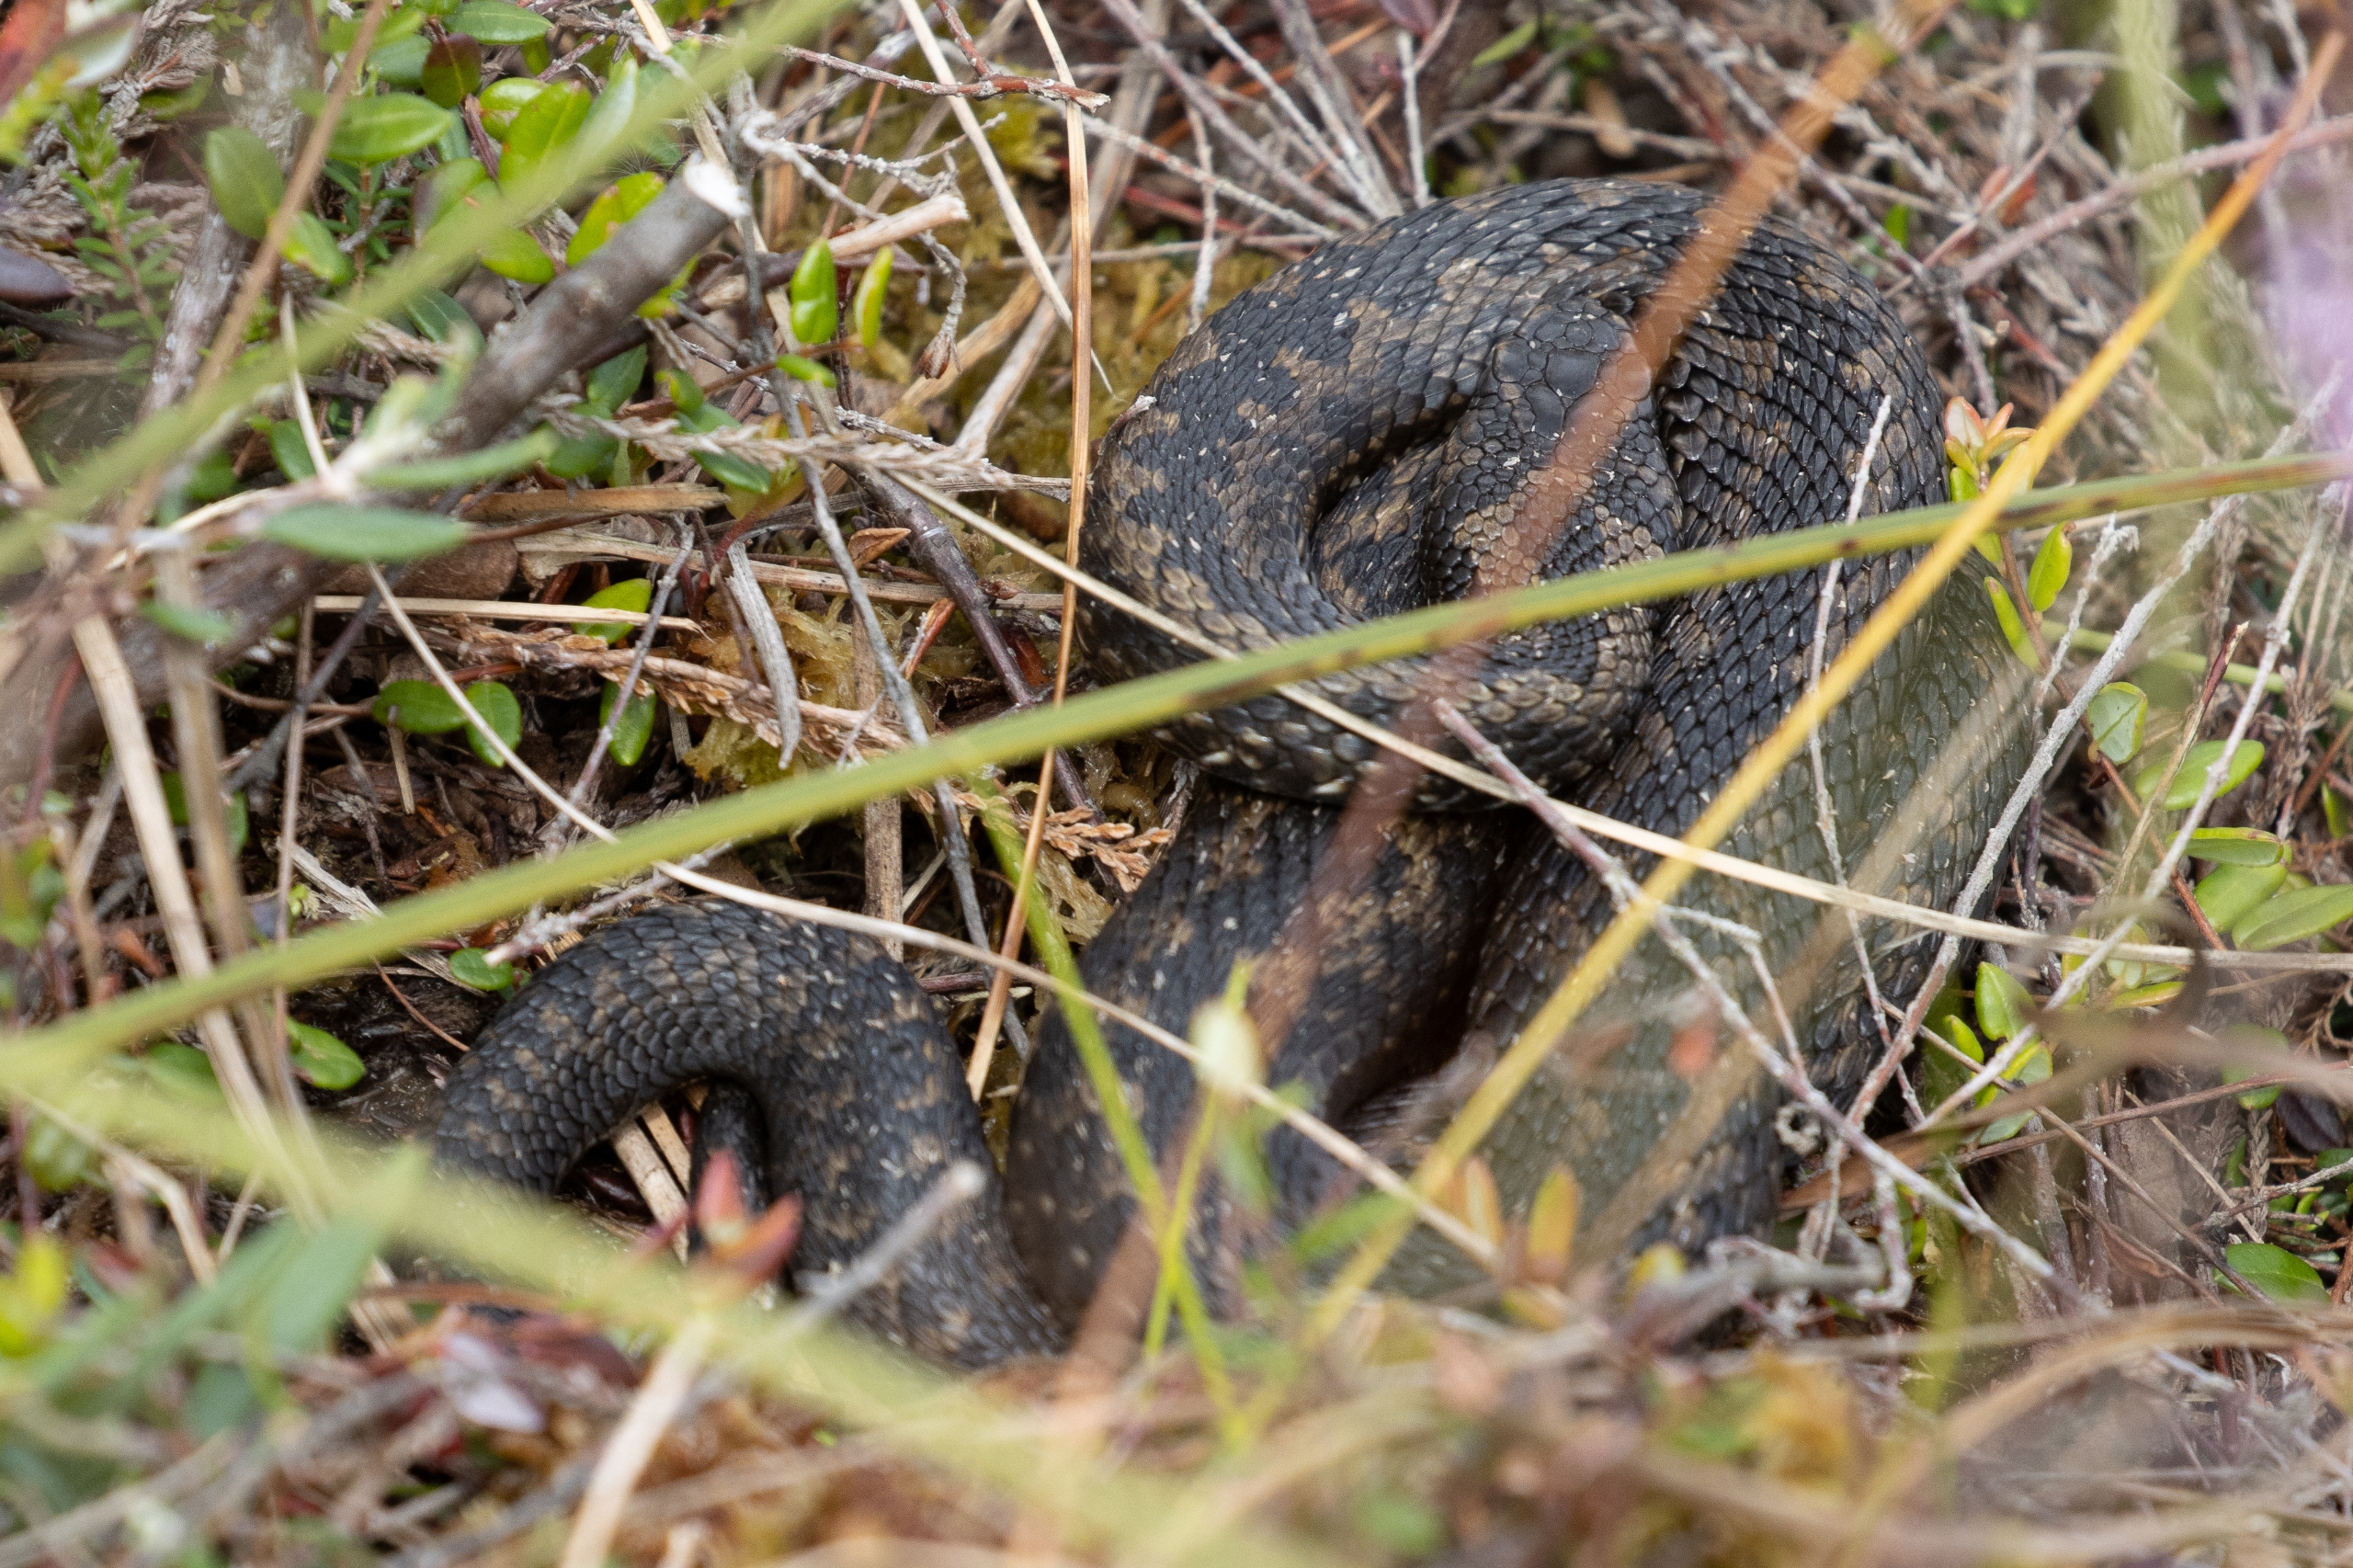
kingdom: Animalia
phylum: Chordata
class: Squamata
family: Viperidae
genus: Vipera
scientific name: Vipera berus
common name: Hugorm
